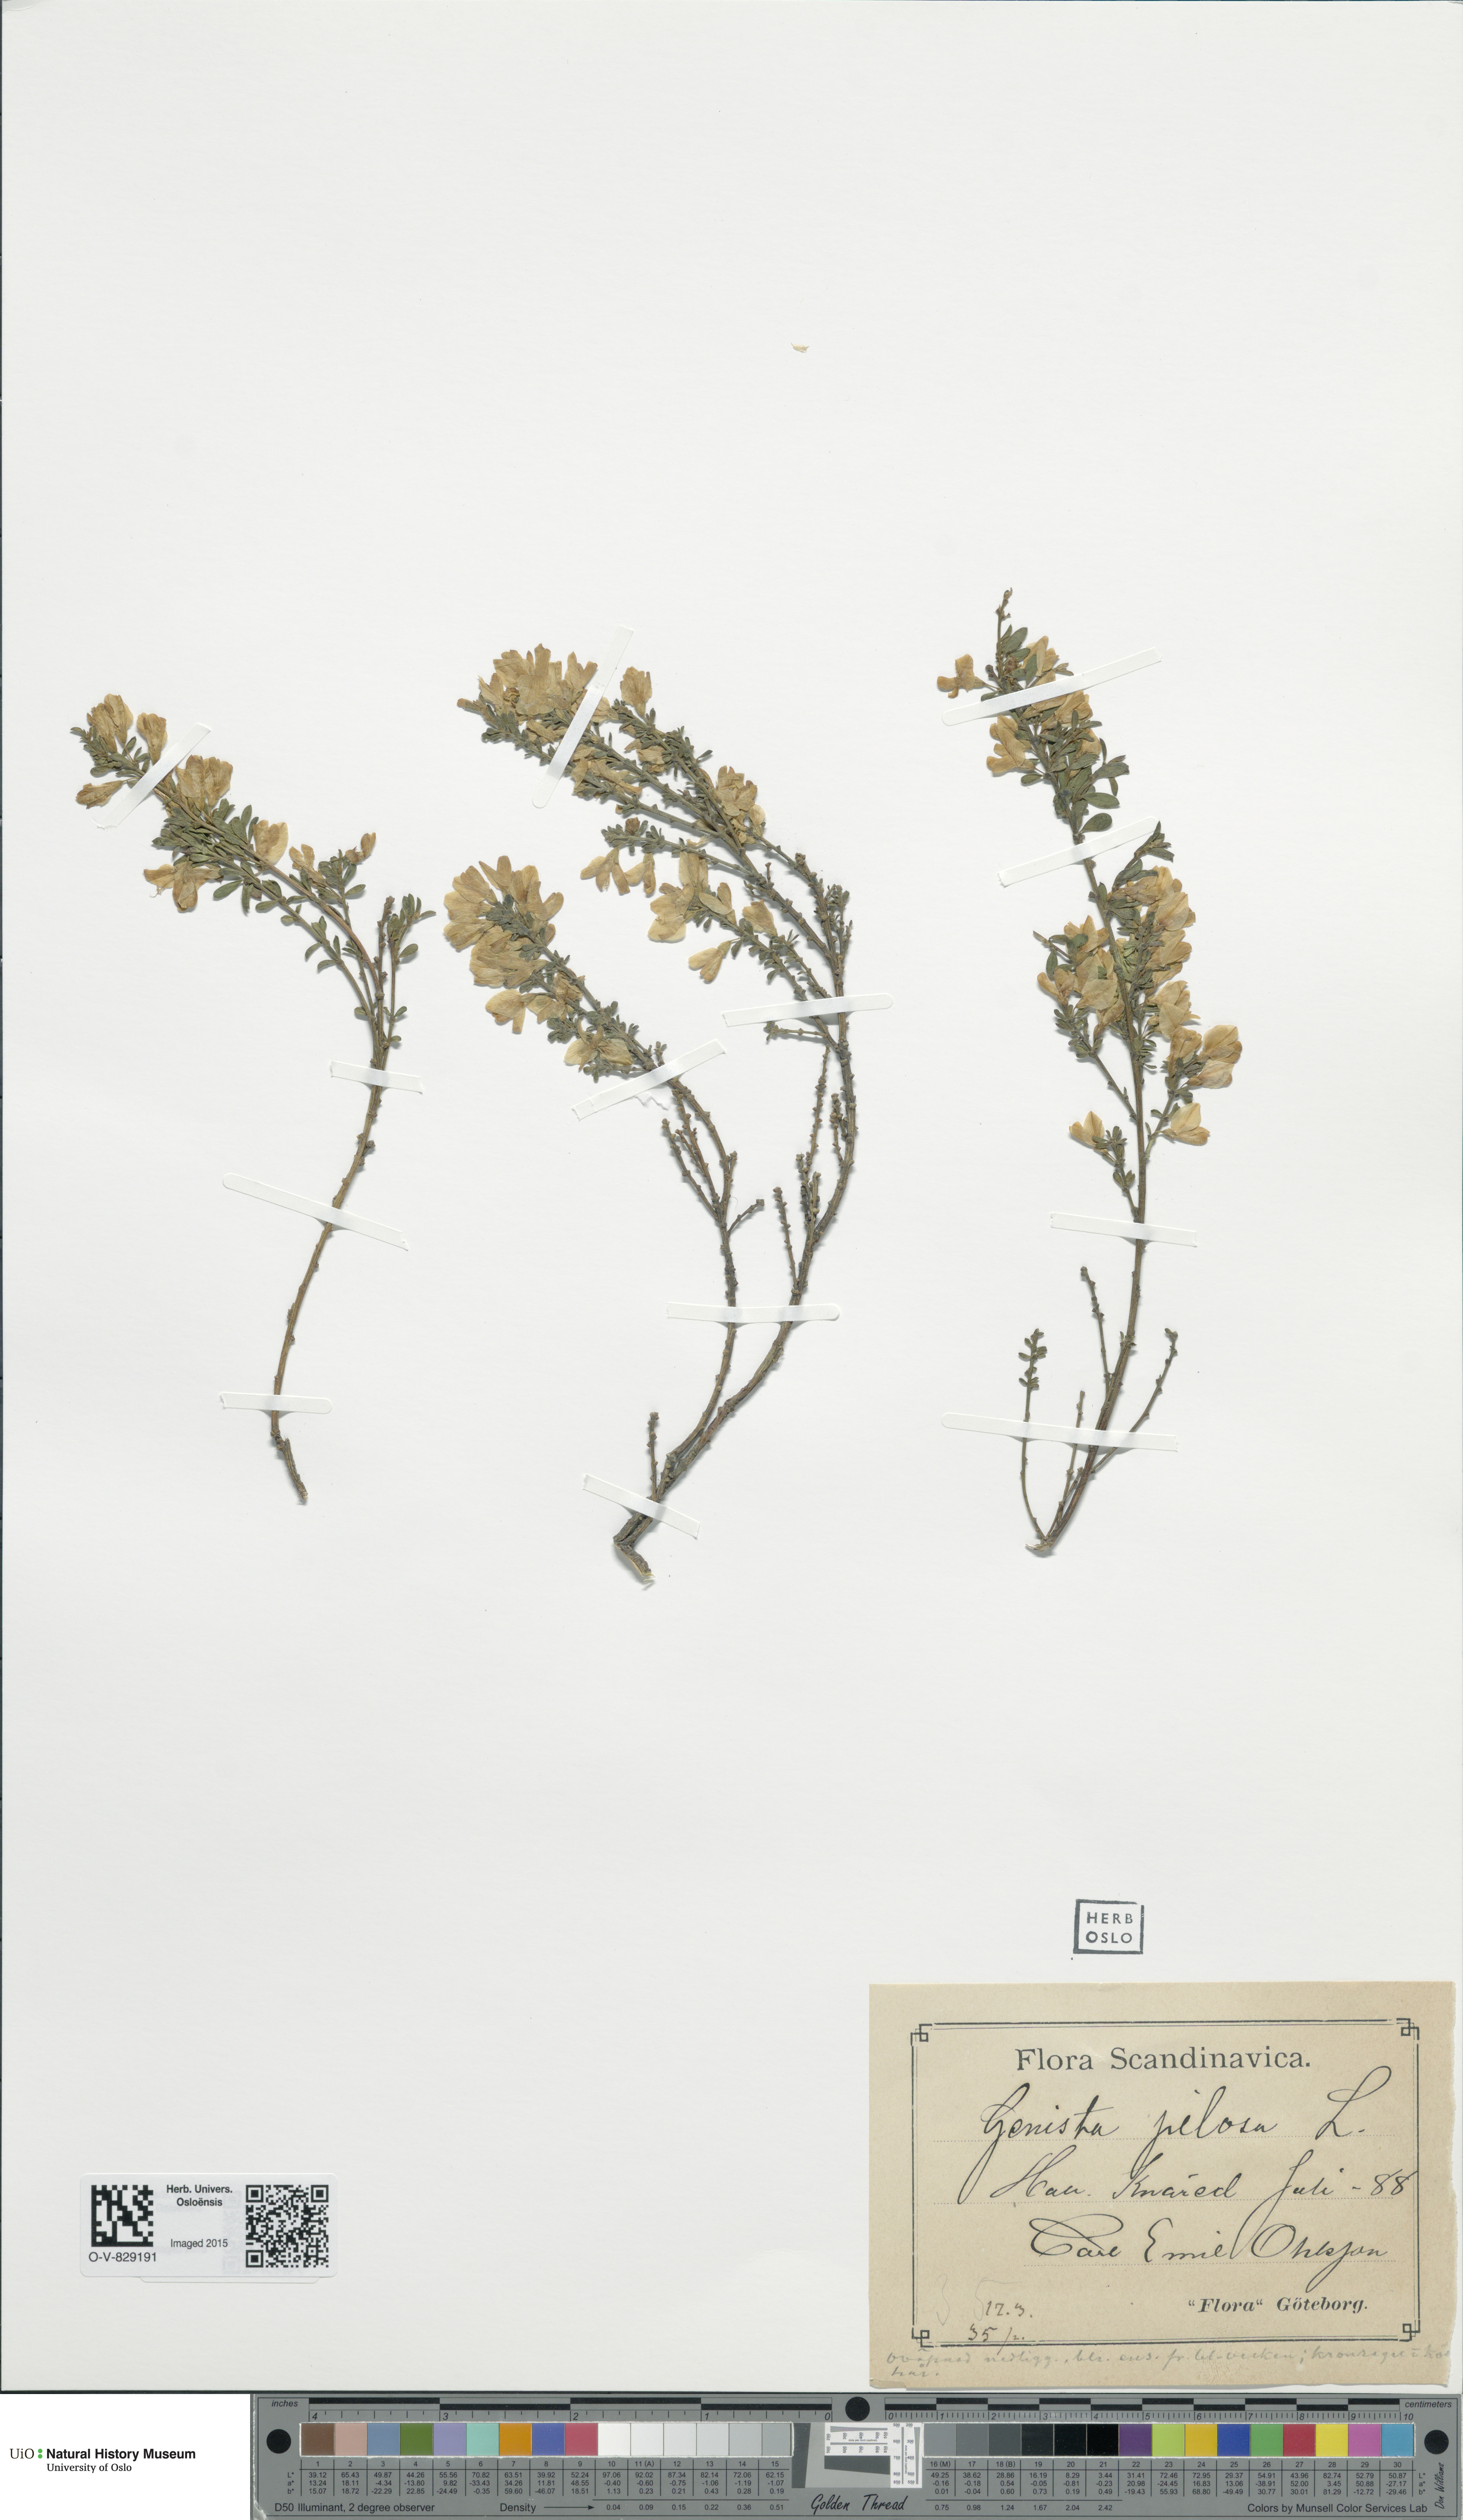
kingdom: Plantae
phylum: Tracheophyta
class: Magnoliopsida
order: Fabales
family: Fabaceae
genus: Genista
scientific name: Genista pilosa
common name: Hairy greenweed
